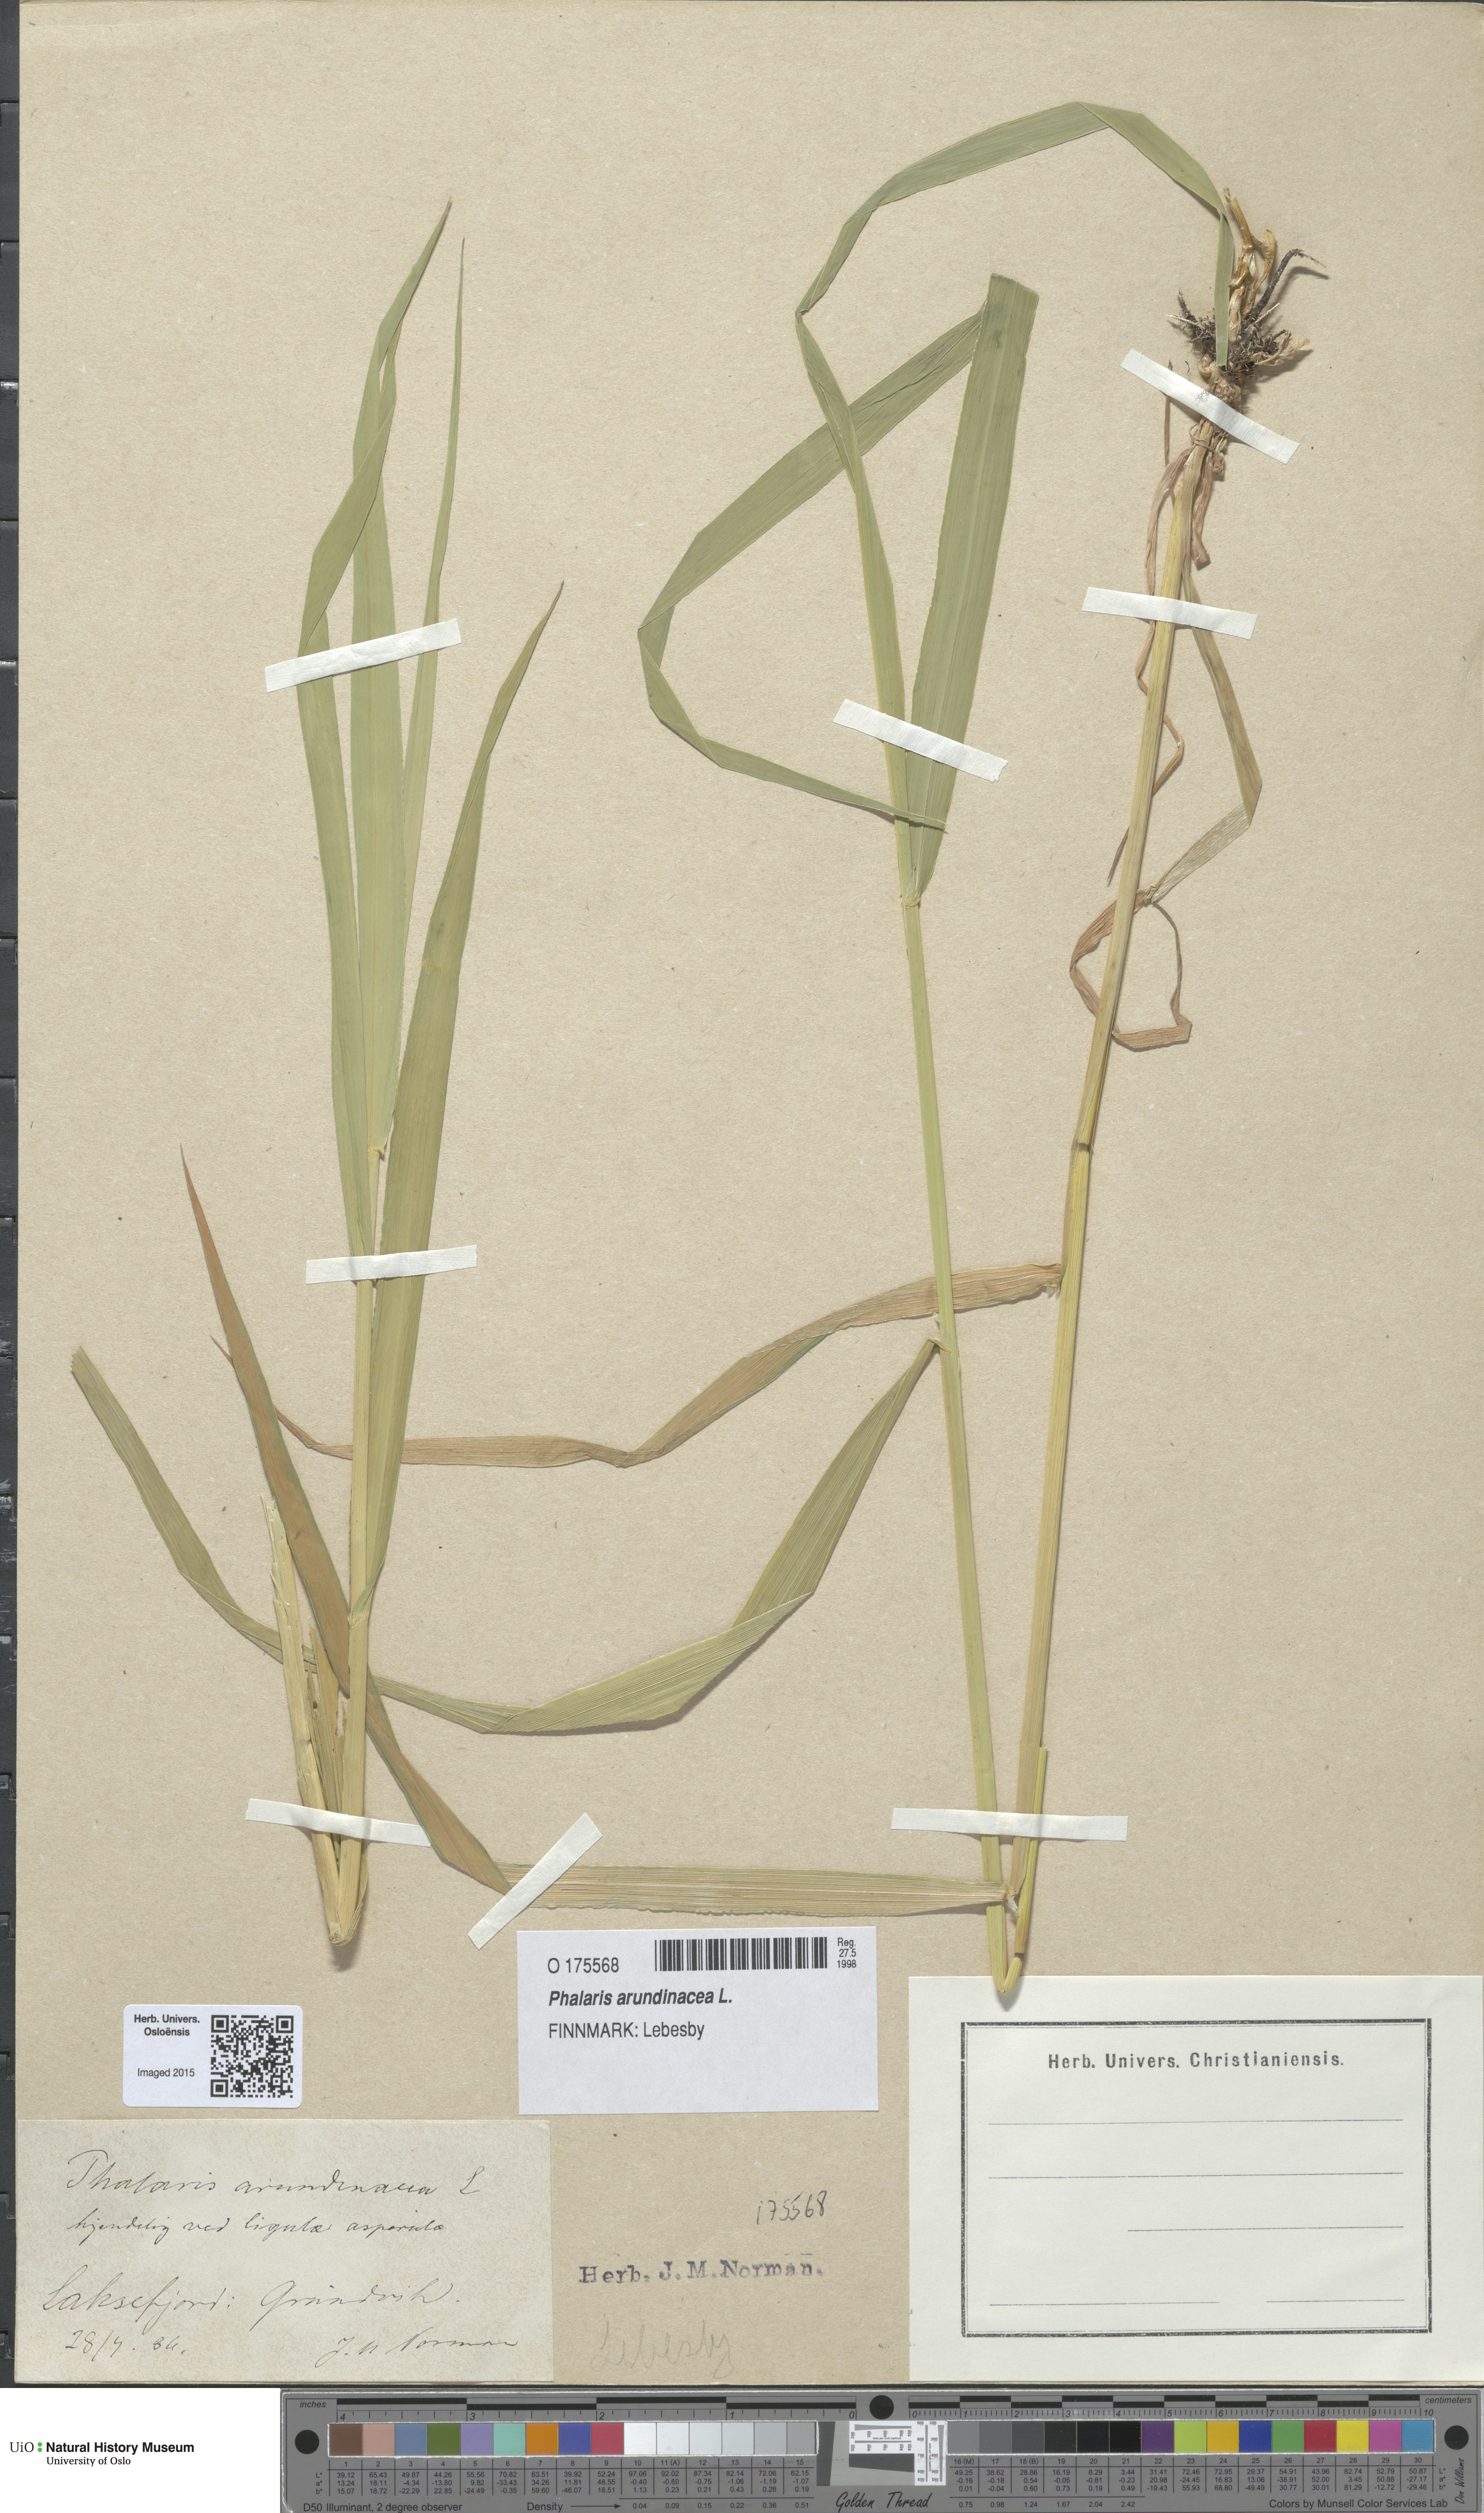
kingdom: Plantae
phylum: Tracheophyta
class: Liliopsida
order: Poales
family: Poaceae
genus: Phalaris
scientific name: Phalaris arundinacea
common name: Reed canary-grass
